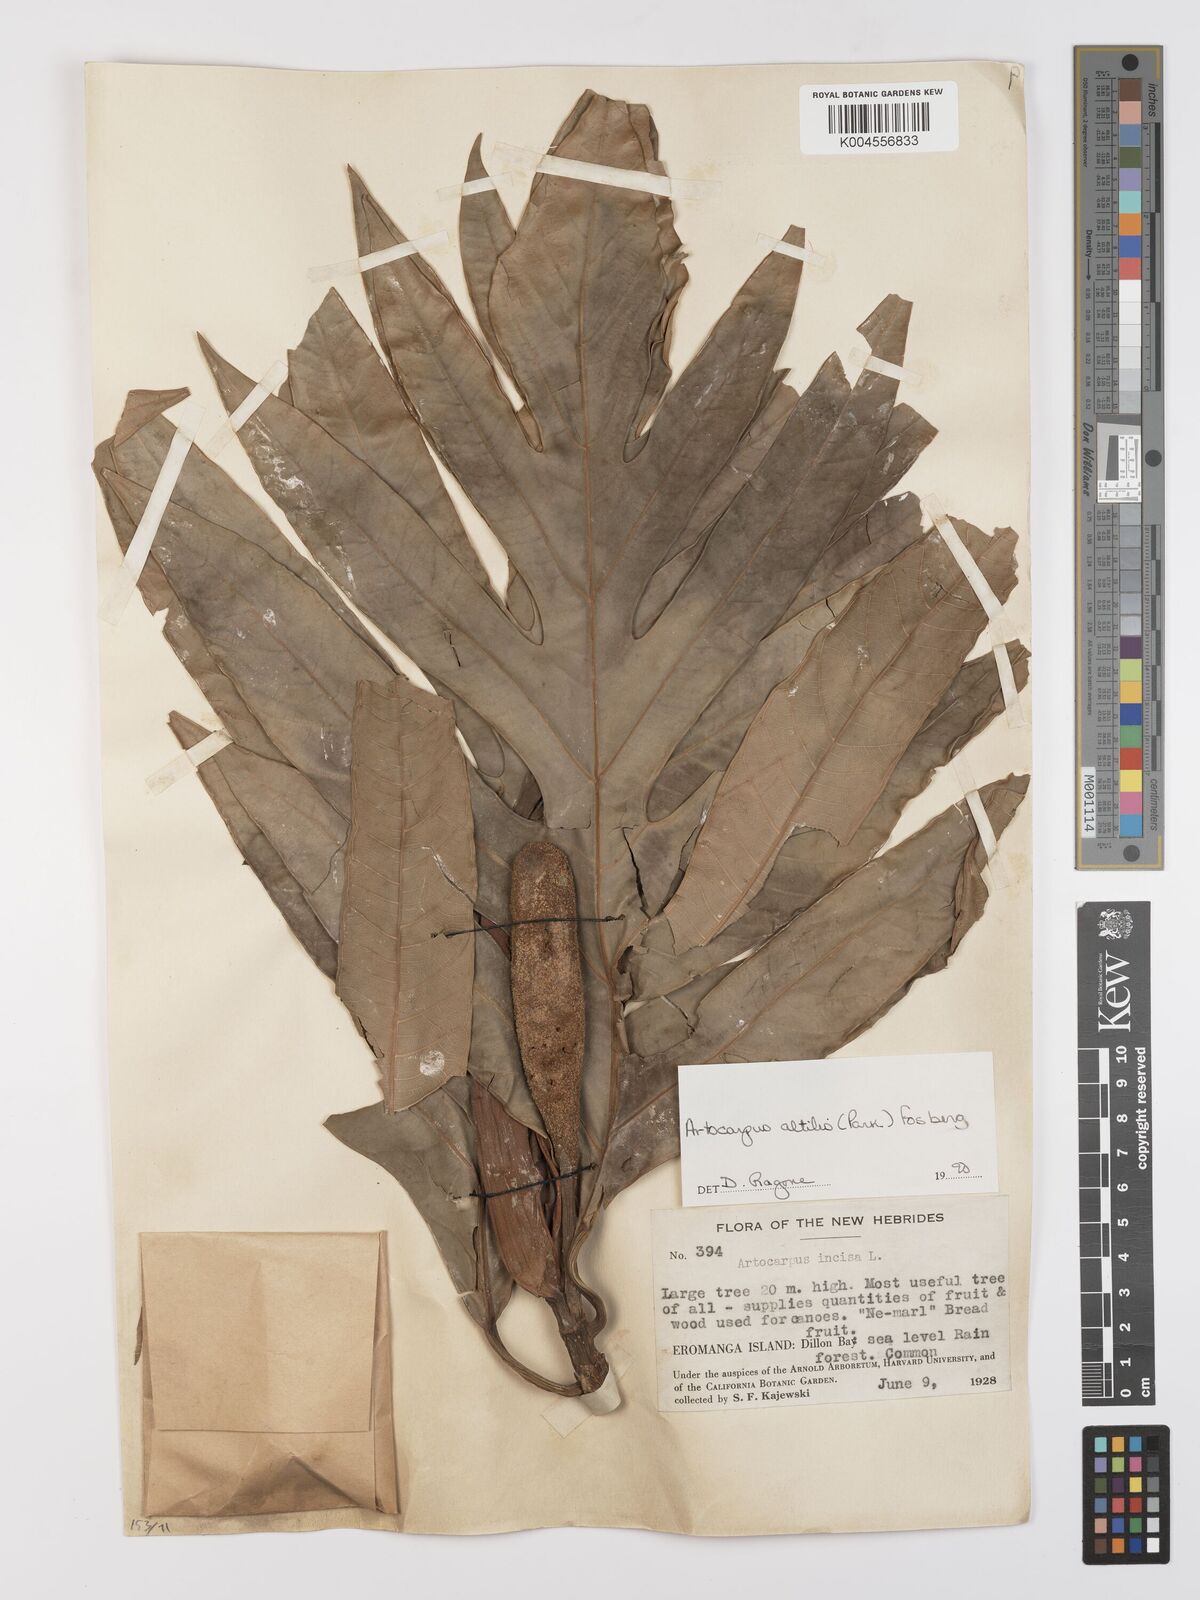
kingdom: Plantae
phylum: Tracheophyta
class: Magnoliopsida
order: Rosales
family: Moraceae
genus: Artocarpus
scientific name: Artocarpus altilis
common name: Breadfruit
